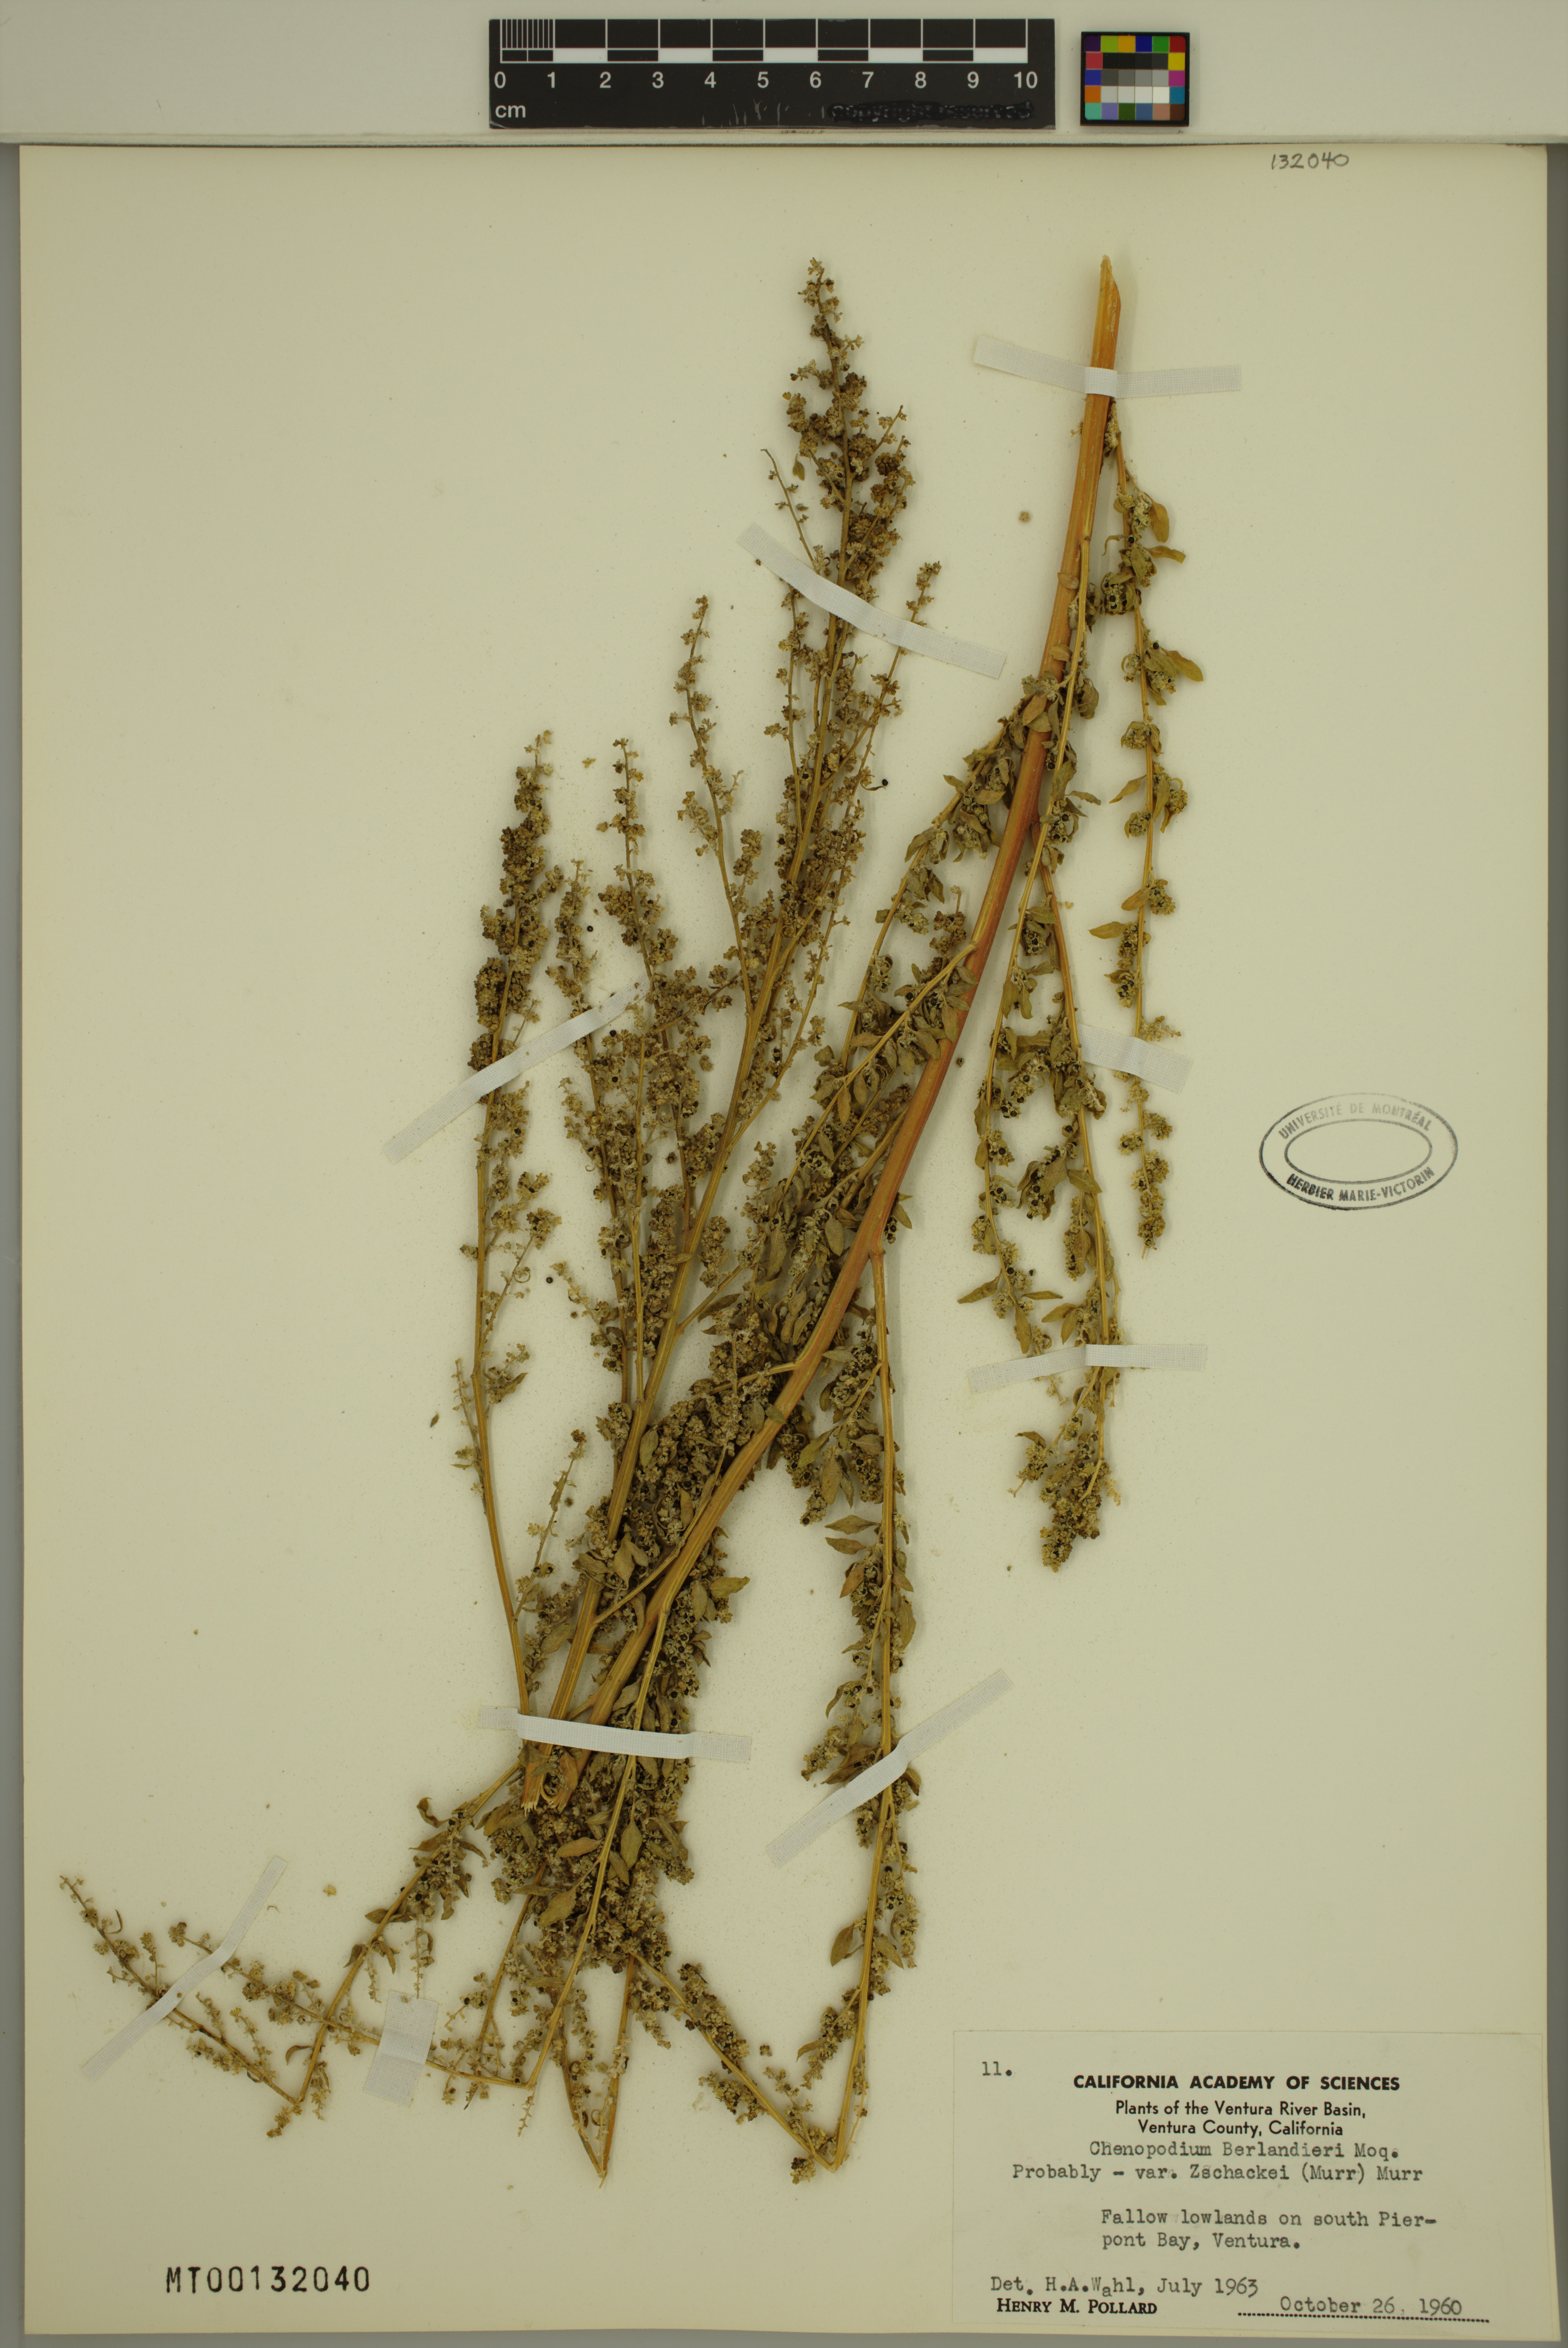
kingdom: Plantae
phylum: Tracheophyta
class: Magnoliopsida
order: Caryophyllales
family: Amaranthaceae
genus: Chenopodium
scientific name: Chenopodium berlandieri
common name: Pit-seed goosefoot
